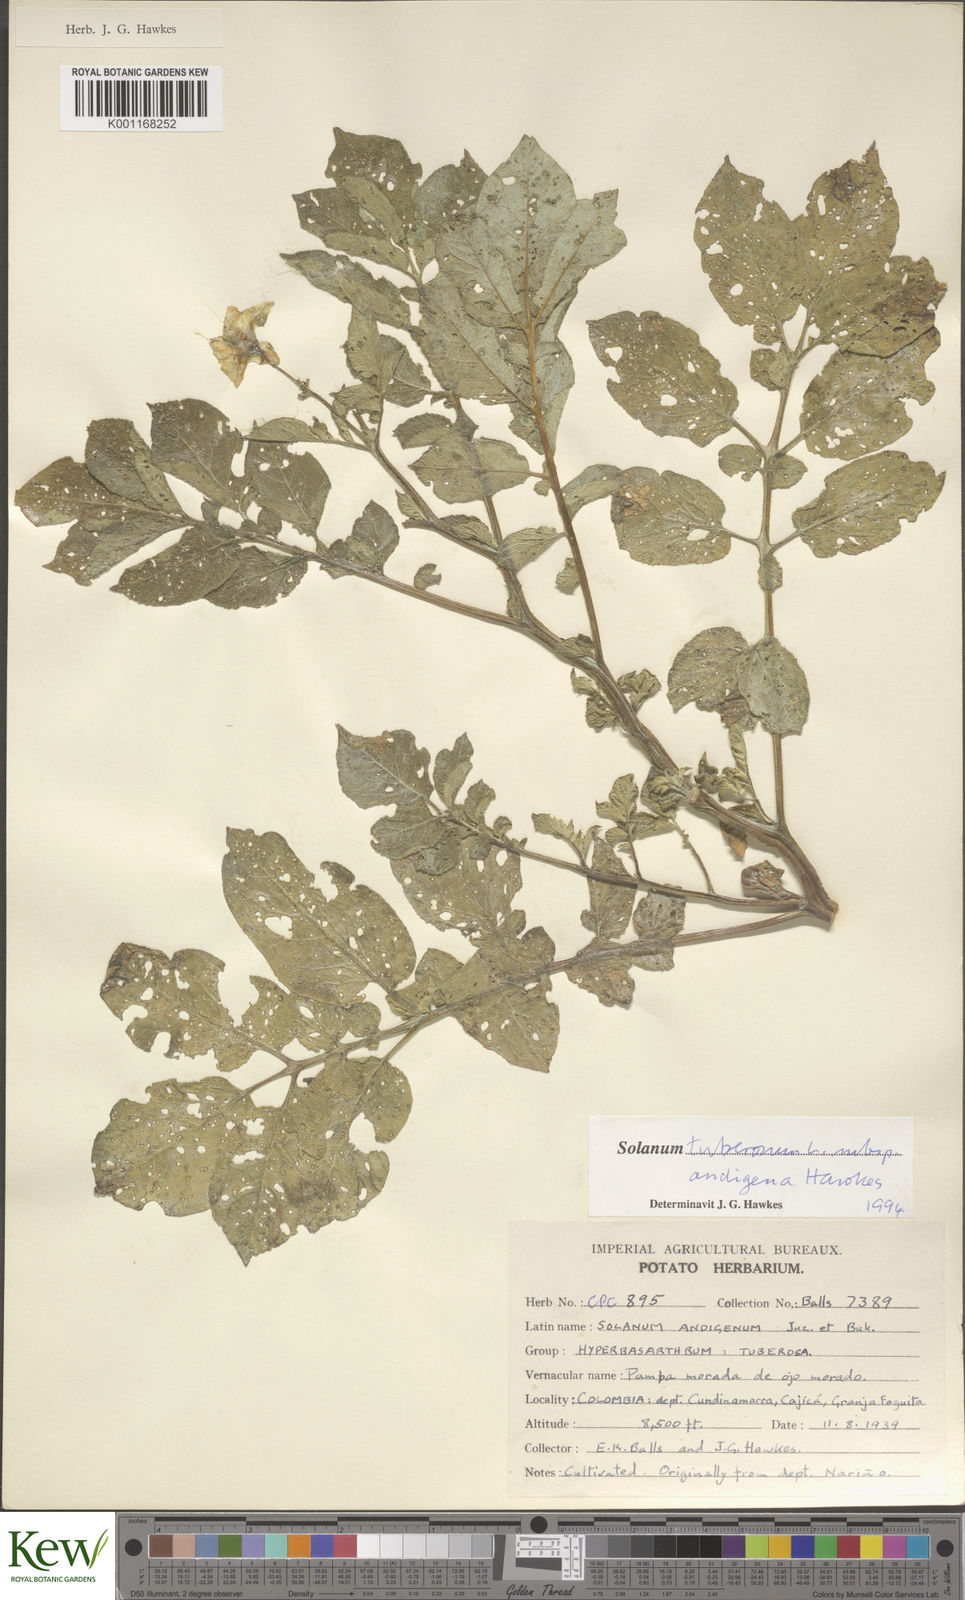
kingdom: Plantae
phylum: Tracheophyta
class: Magnoliopsida
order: Solanales
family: Solanaceae
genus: Solanum
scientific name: Solanum tuberosum
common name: Potato
